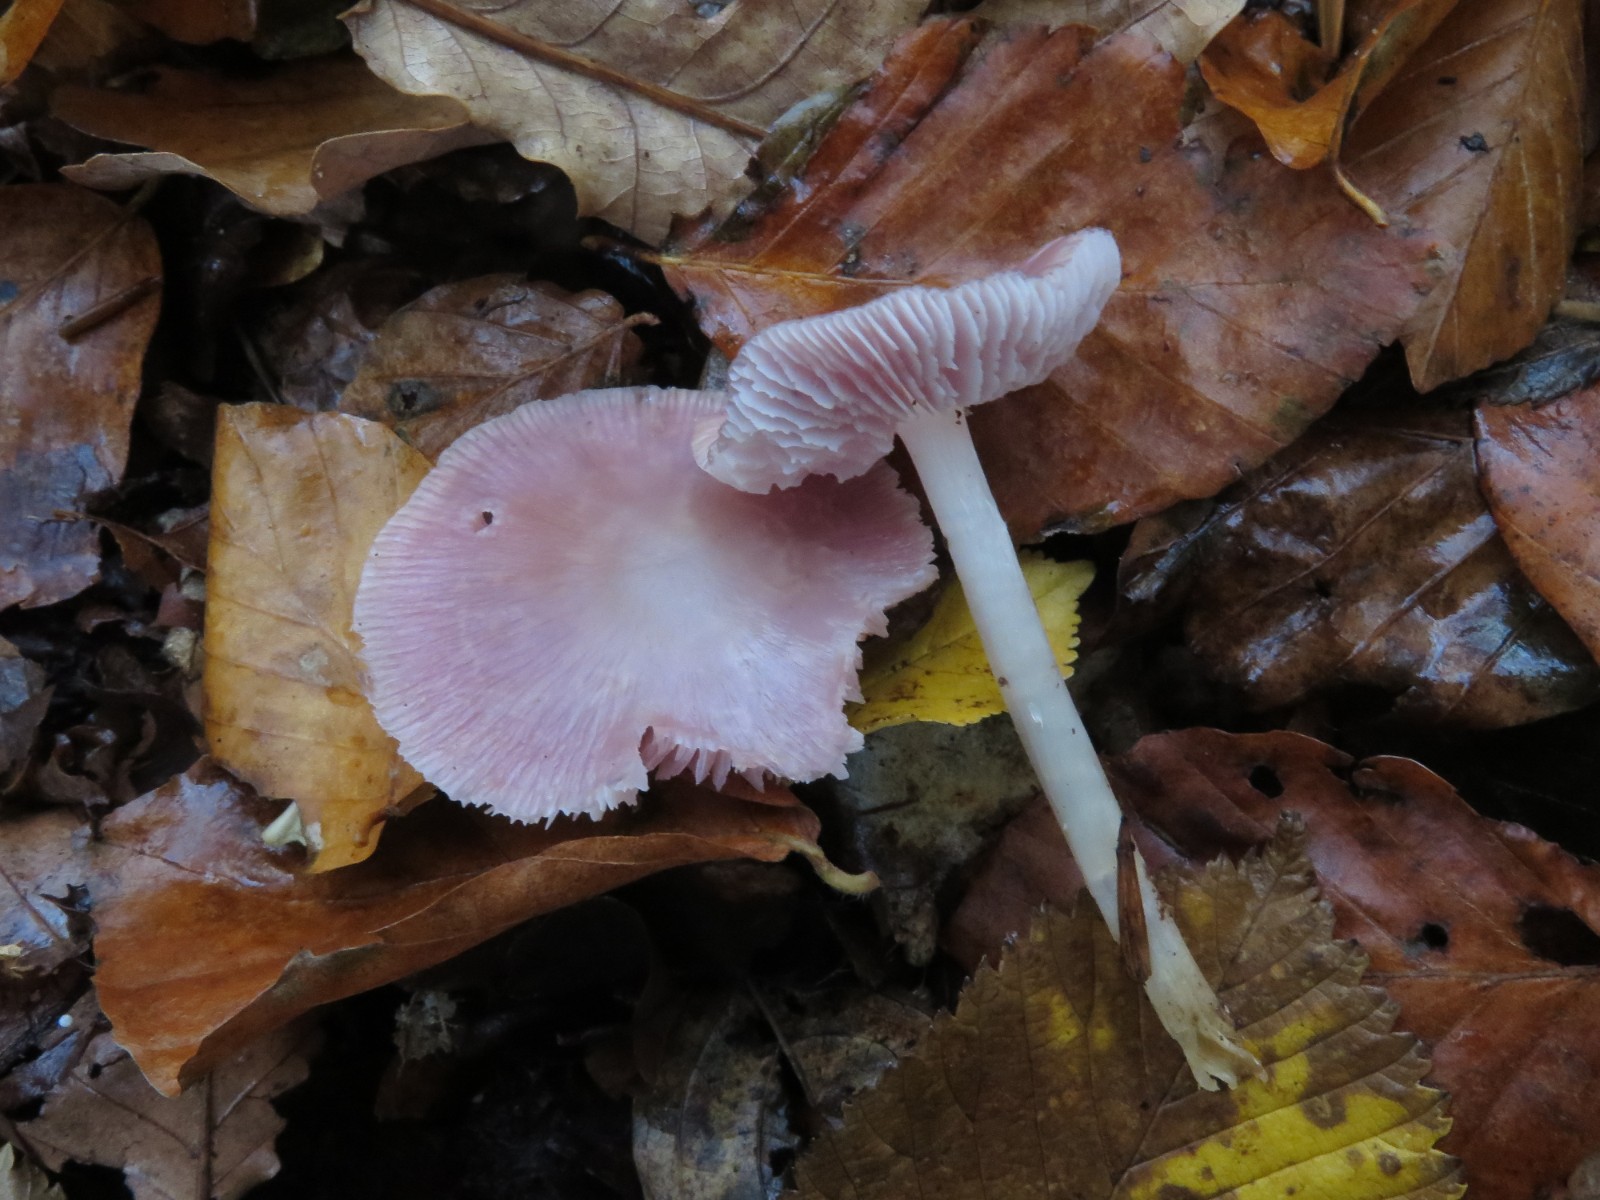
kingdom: Fungi
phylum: Basidiomycota
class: Agaricomycetes
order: Agaricales
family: Mycenaceae
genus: Mycena
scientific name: Mycena rosea
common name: rosa huesvamp
